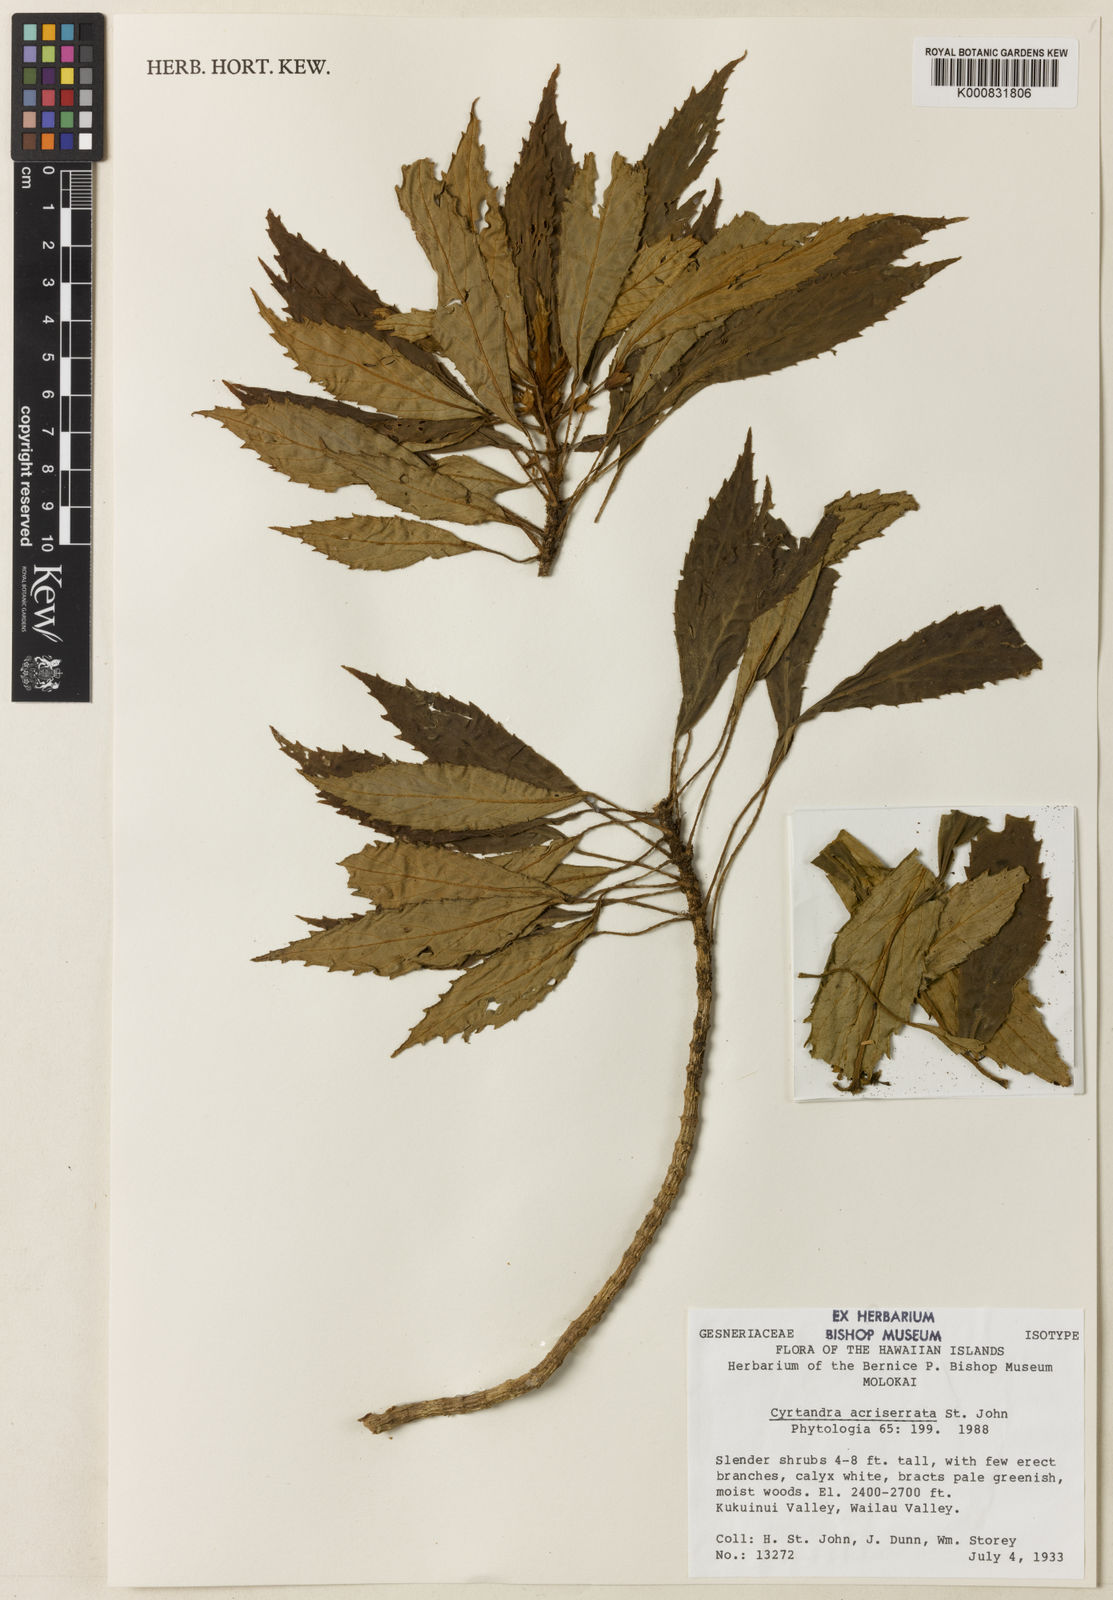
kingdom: Plantae
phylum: Tracheophyta
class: Magnoliopsida
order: Lamiales
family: Gesneriaceae
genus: Cyrtandra
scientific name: Cyrtandra biserrata
